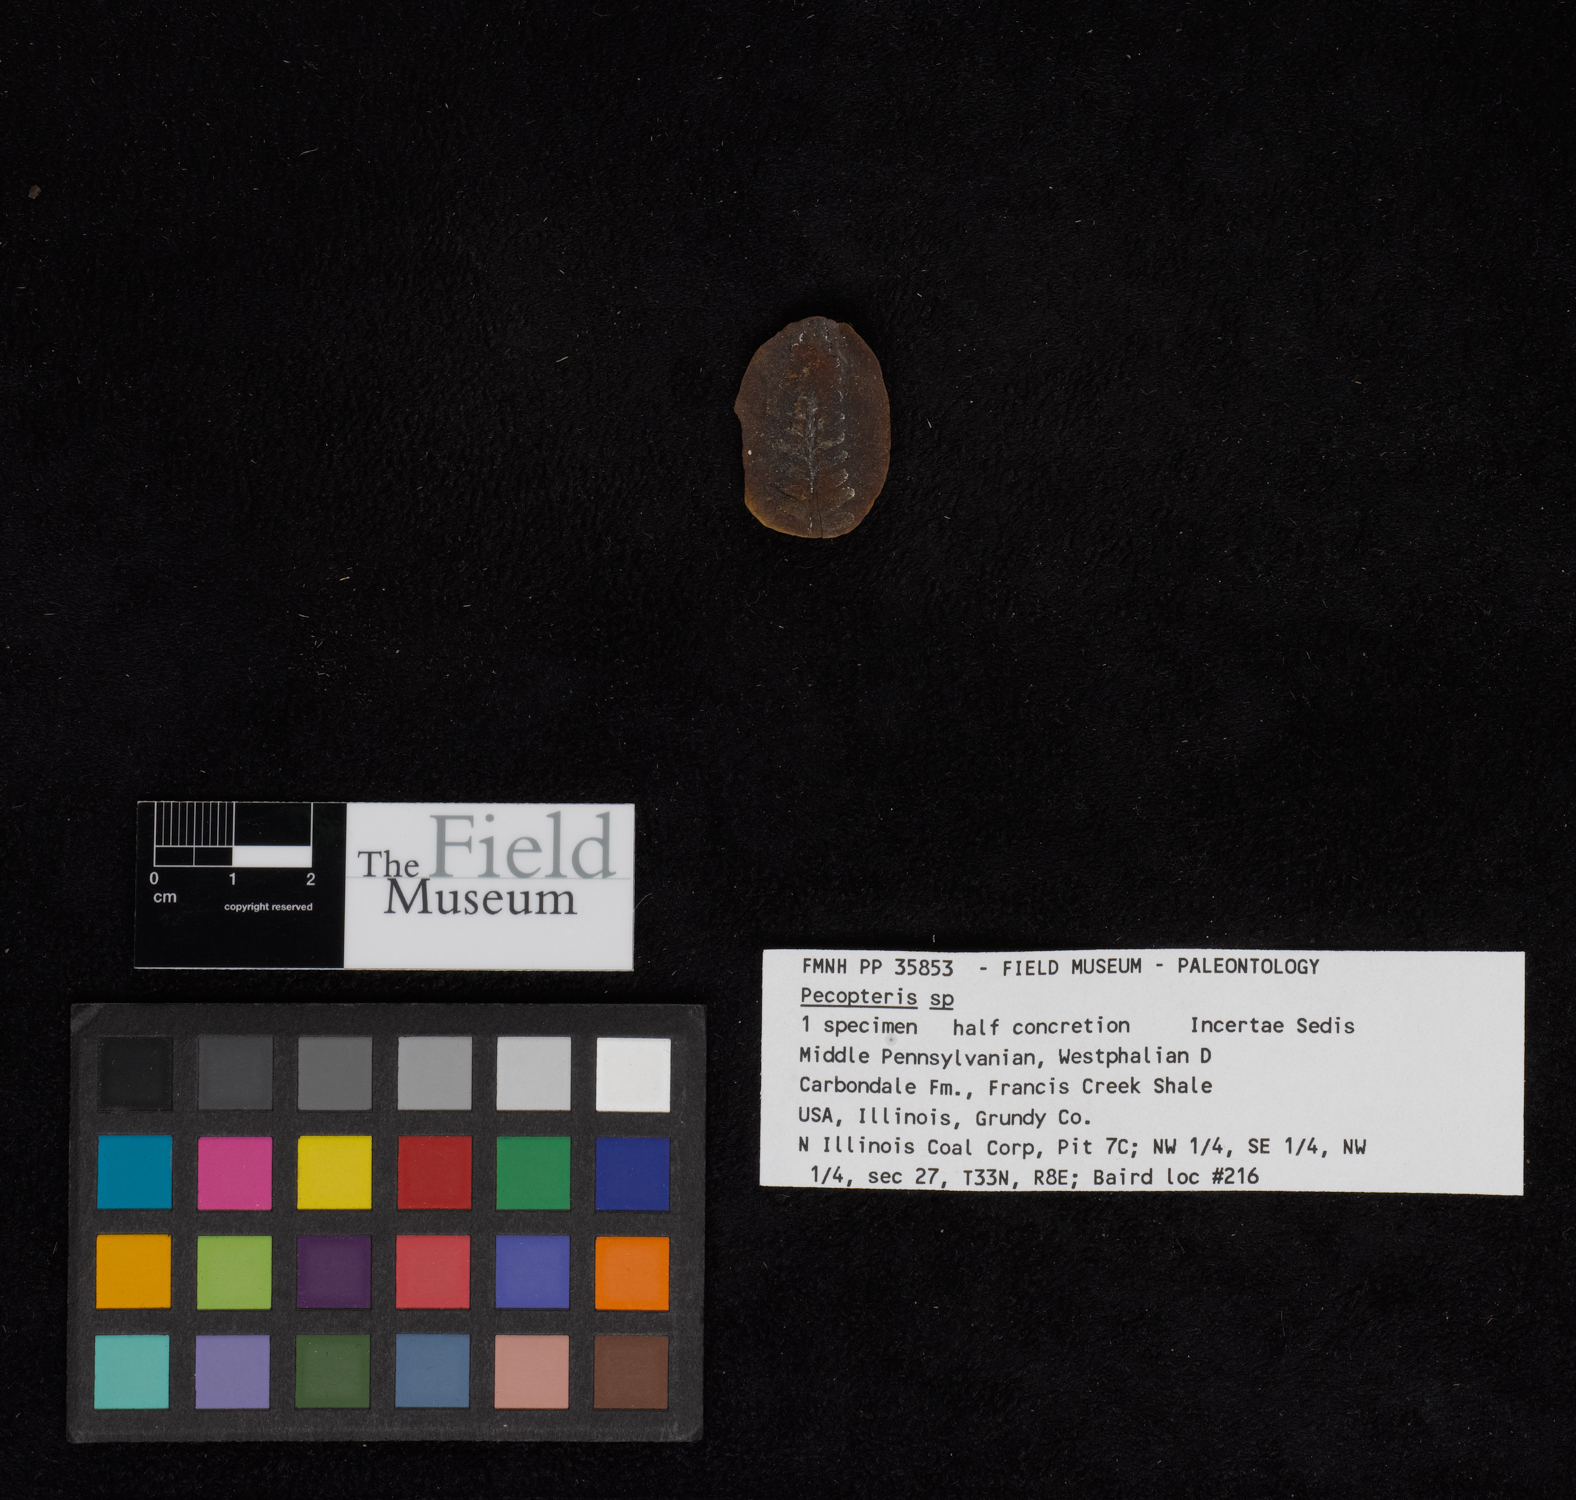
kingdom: Plantae
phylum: Tracheophyta
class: Polypodiopsida
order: Marattiales
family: Asterothecaceae
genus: Pecopteris
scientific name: Pecopteris
